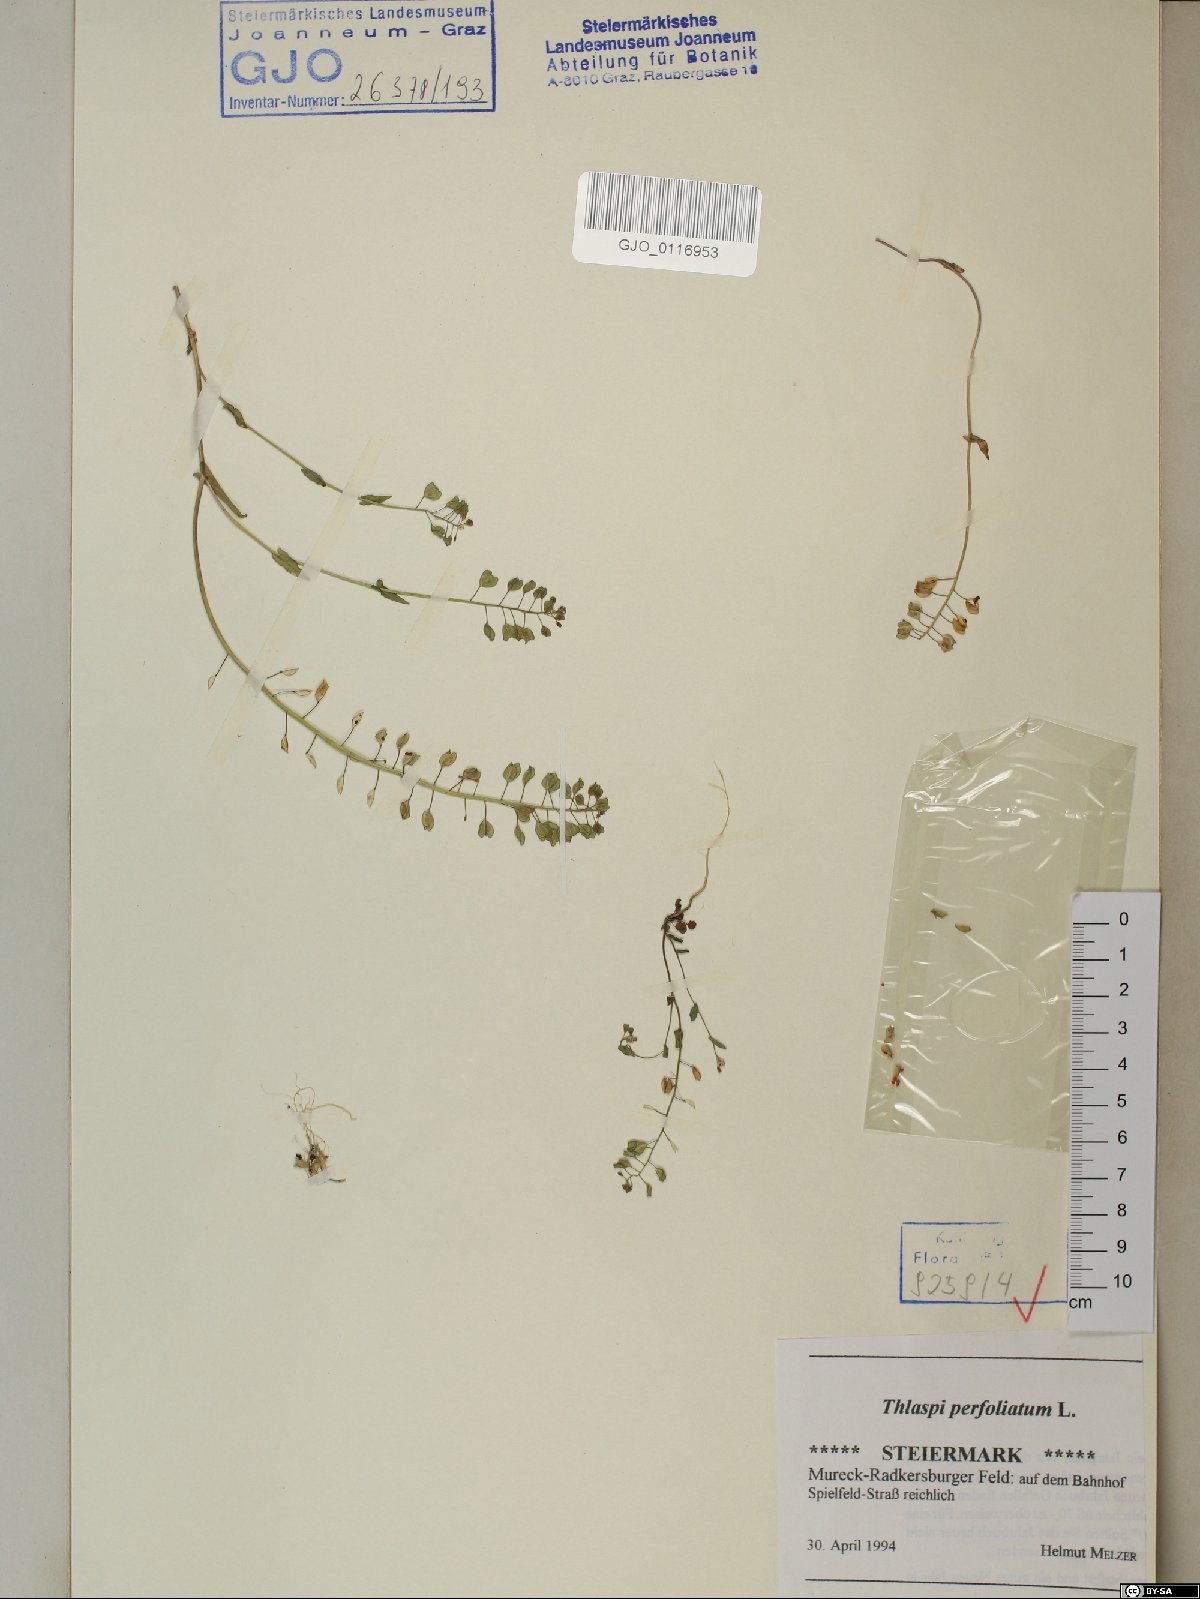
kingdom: Plantae
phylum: Tracheophyta
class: Magnoliopsida
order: Brassicales
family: Brassicaceae
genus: Noccaea
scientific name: Noccaea perfoliata
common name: Perfoliate pennycress
